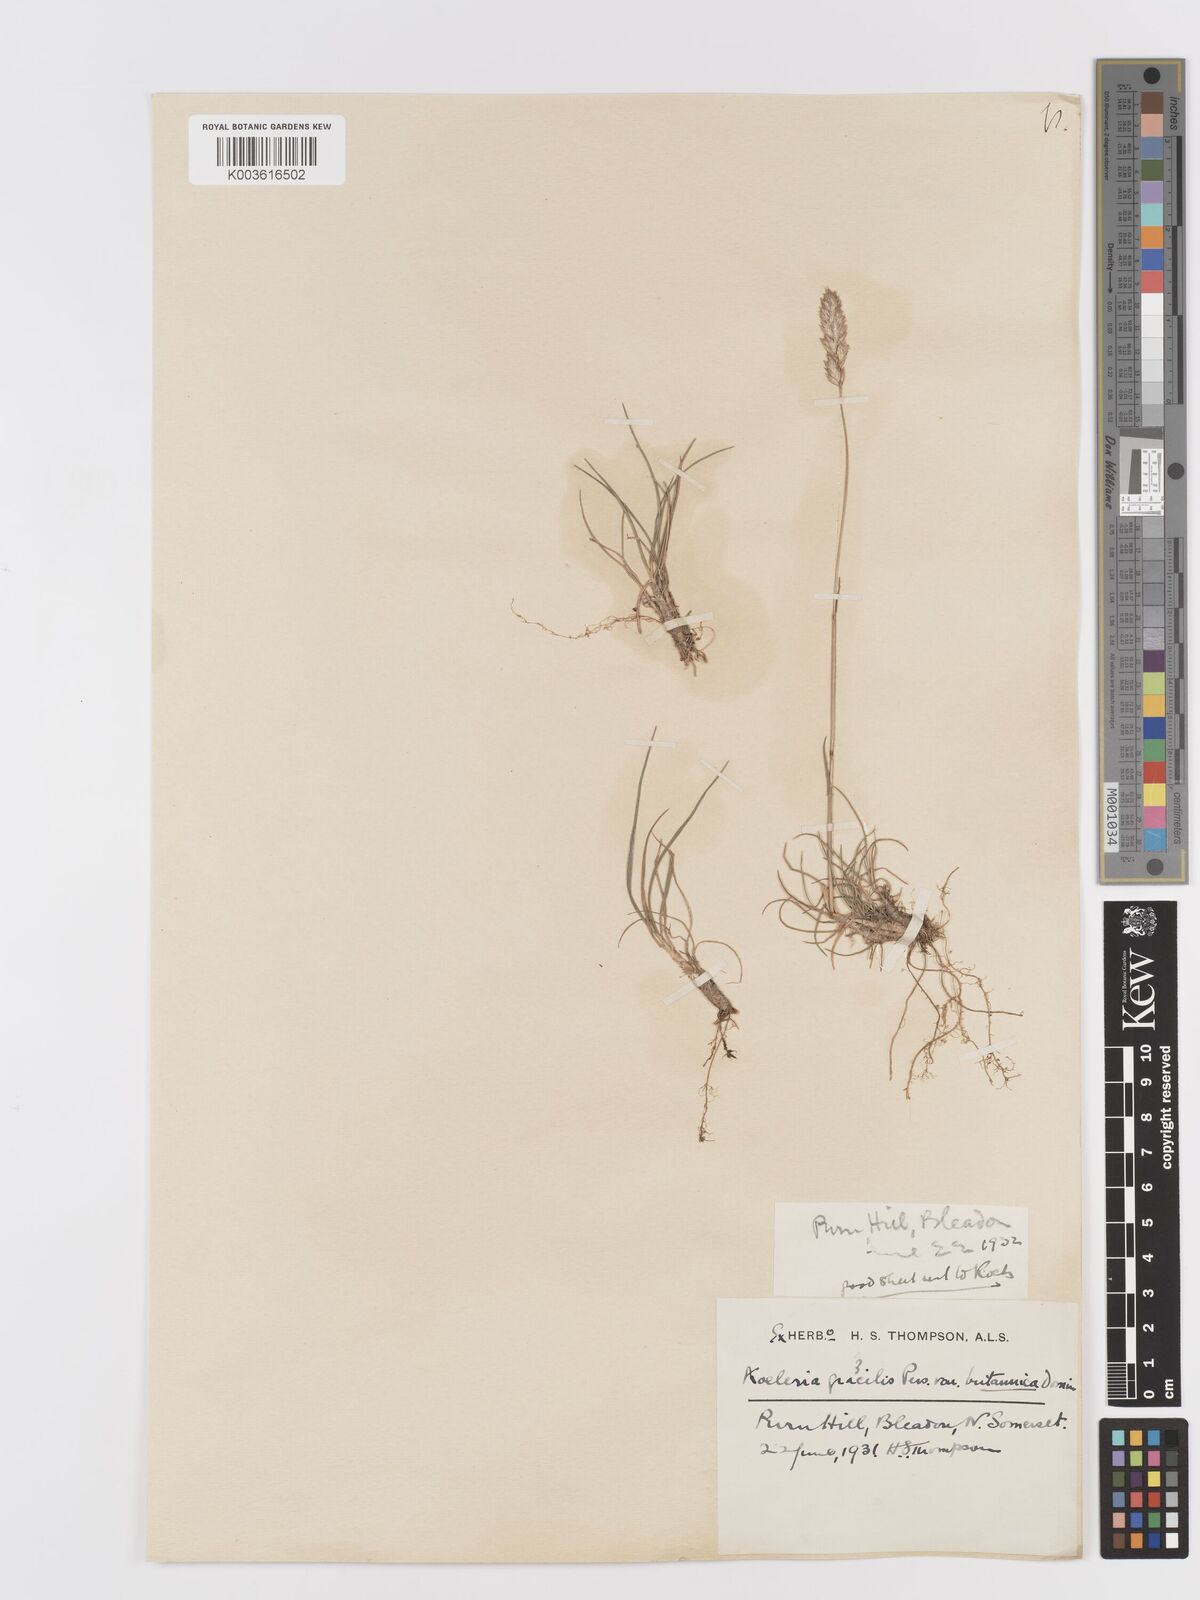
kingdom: Plantae
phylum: Tracheophyta
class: Liliopsida
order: Poales
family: Poaceae
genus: Koeleria
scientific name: Koeleria vallesiana
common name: Somerset hair-grass
